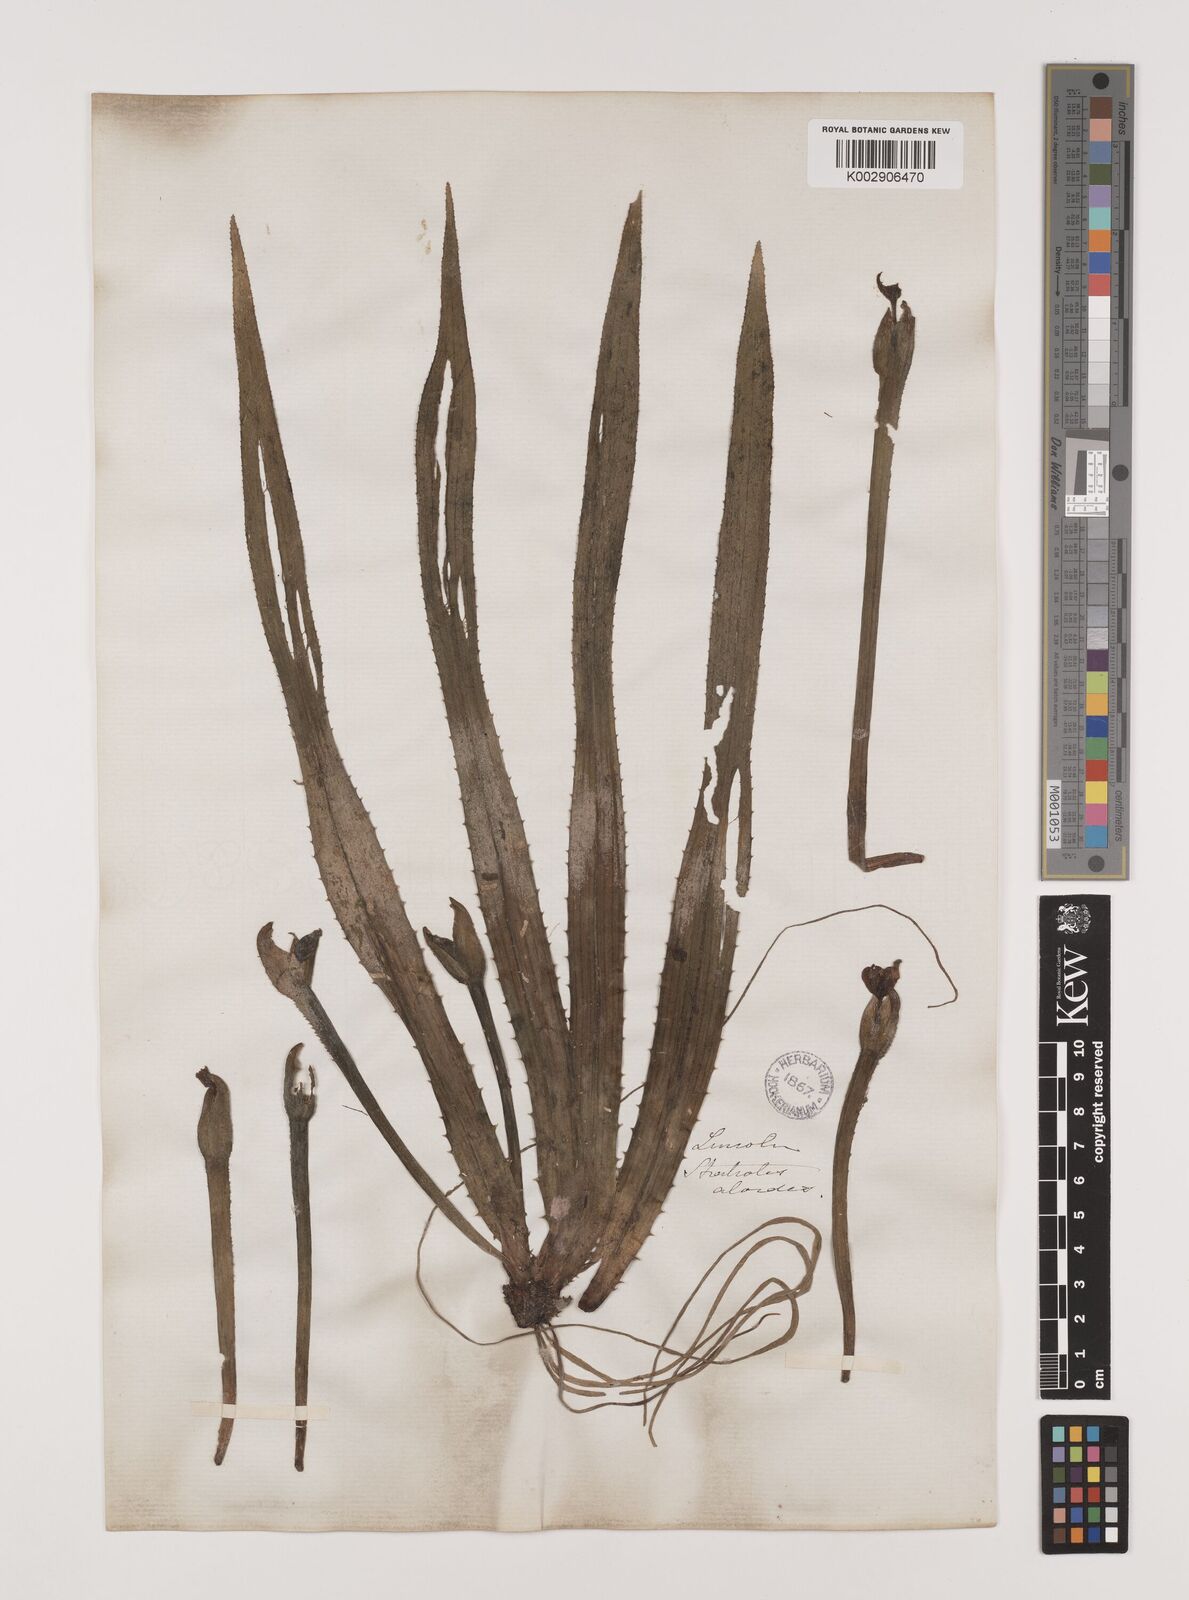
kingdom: Plantae
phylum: Tracheophyta
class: Liliopsida
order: Alismatales
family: Hydrocharitaceae
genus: Stratiotes
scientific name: Stratiotes aloides
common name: Water-soldier
